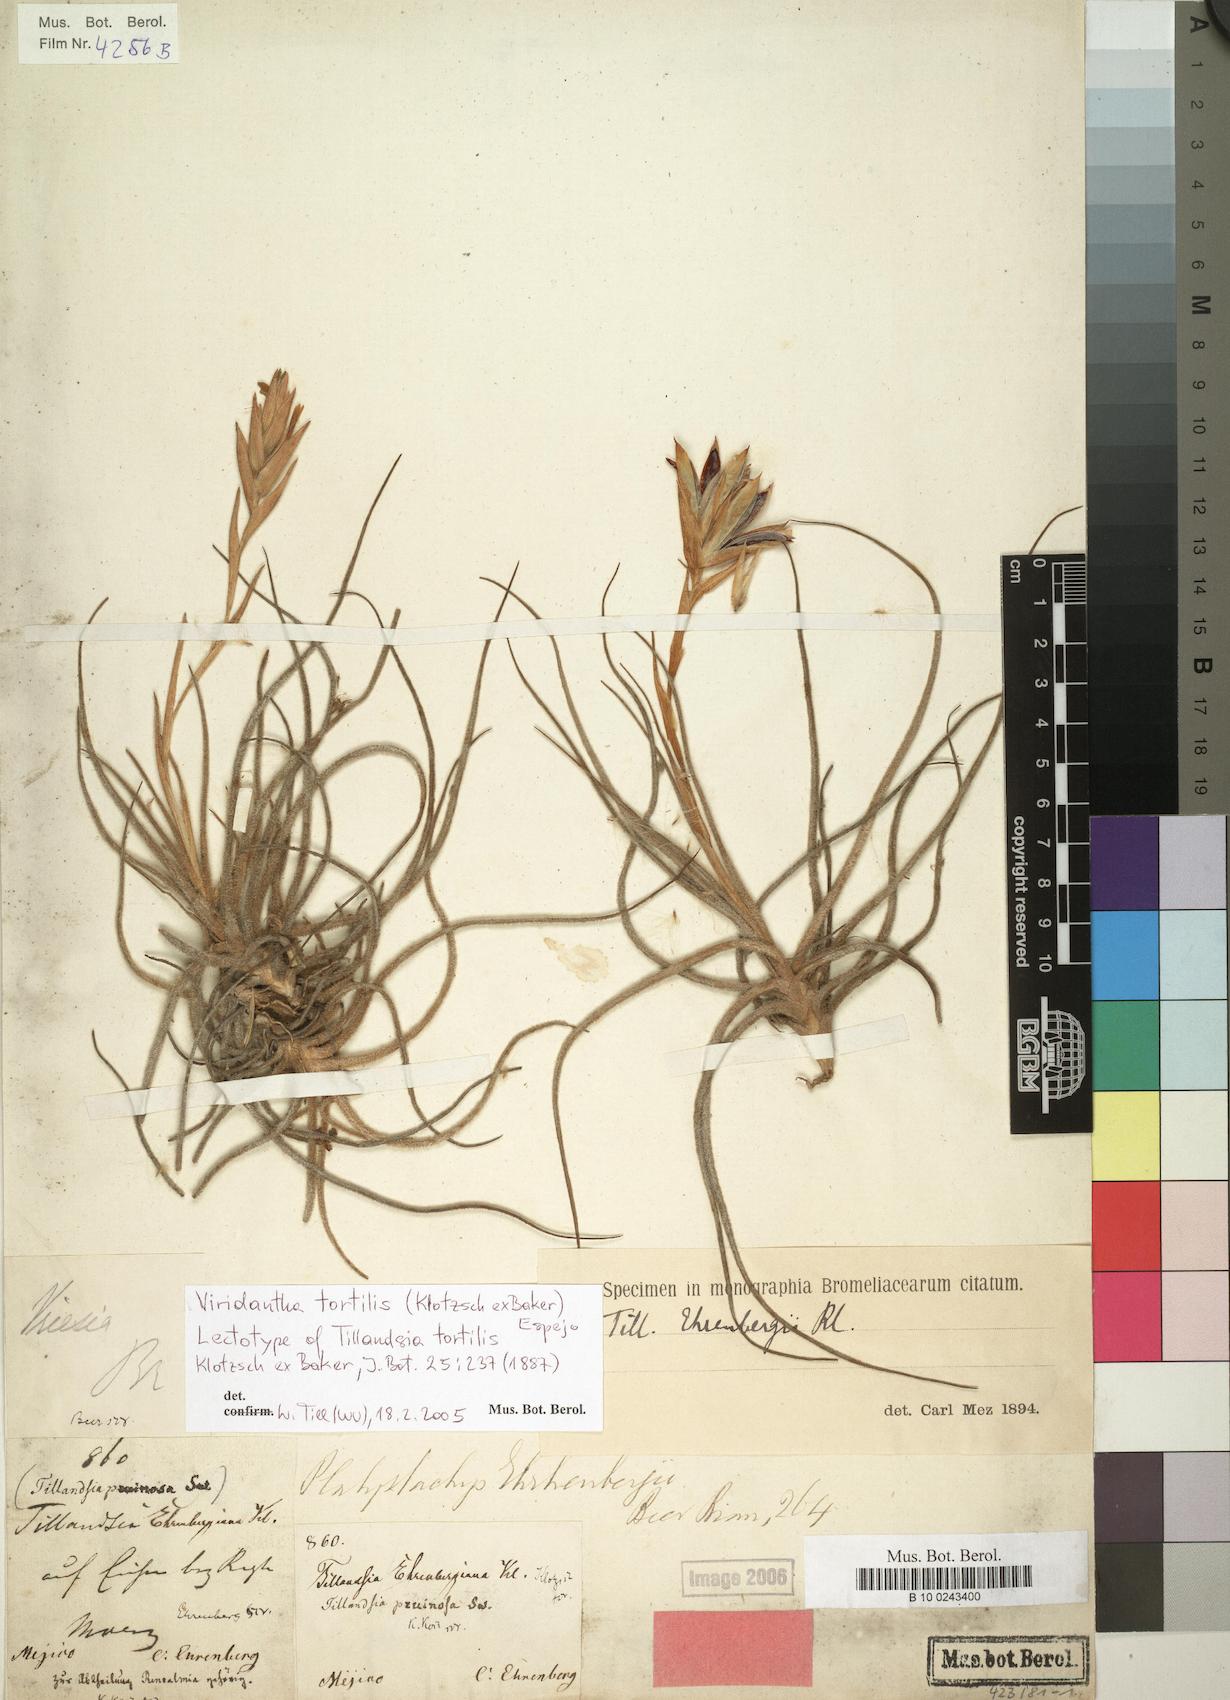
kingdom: Plantae
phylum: Tracheophyta
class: Liliopsida
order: Poales
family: Bromeliaceae
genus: Tillandsia
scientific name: Tillandsia tortilis
